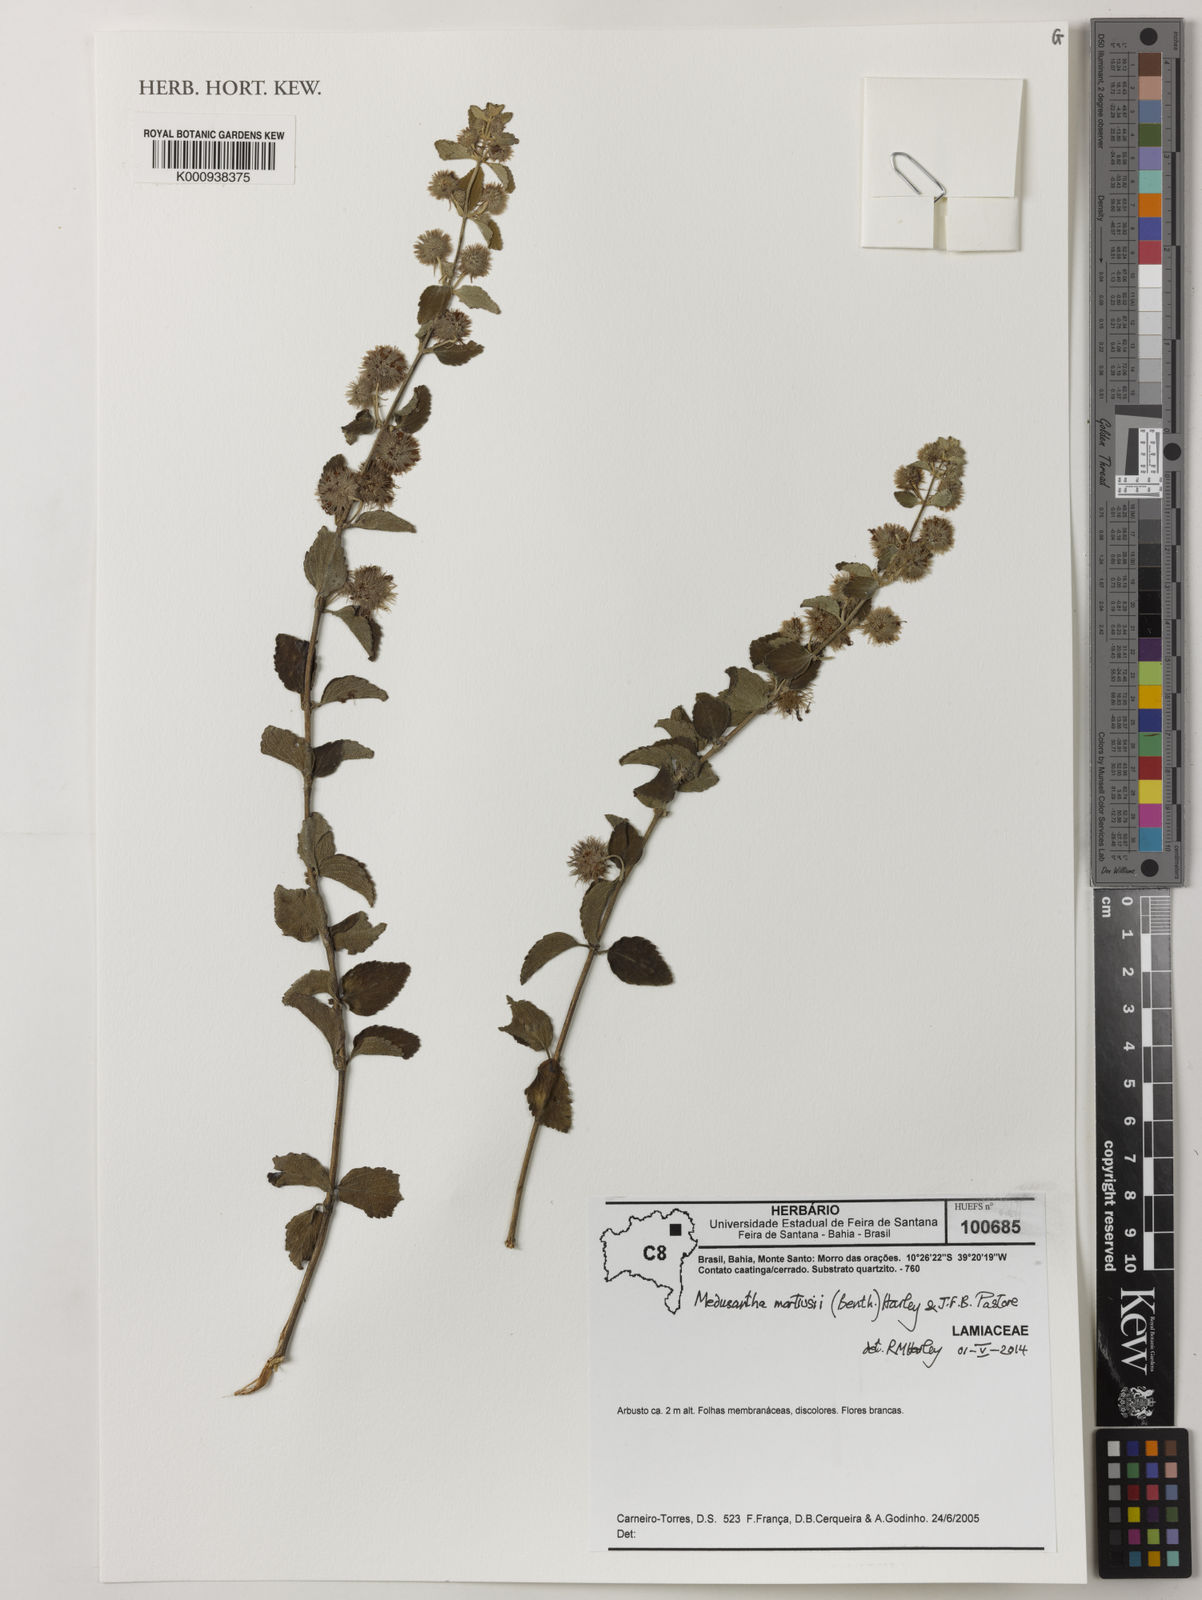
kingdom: Plantae
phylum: Tracheophyta
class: Magnoliopsida
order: Lamiales
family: Lamiaceae
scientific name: Lamiaceae
